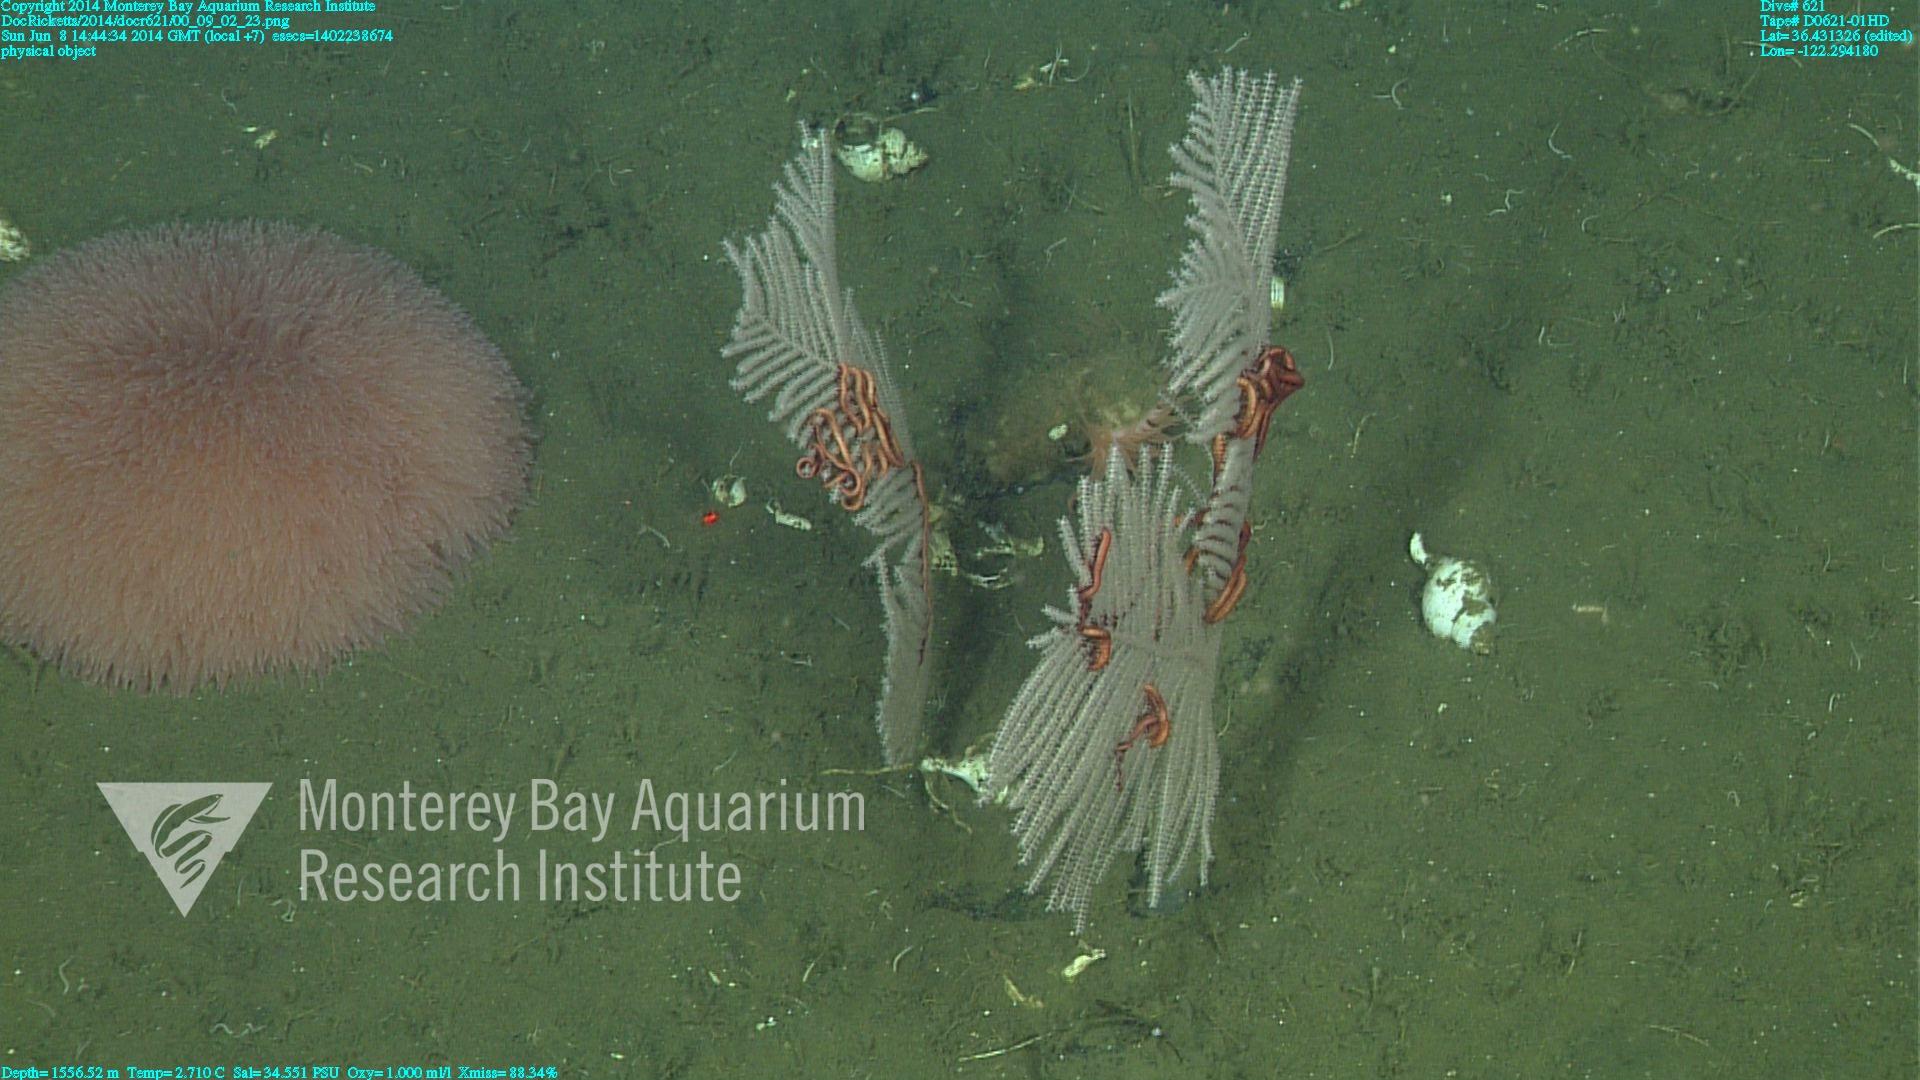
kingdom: Animalia
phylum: Cnidaria
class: Anthozoa
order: Scleralcyonacea
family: Primnoidae
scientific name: Primnoidae
